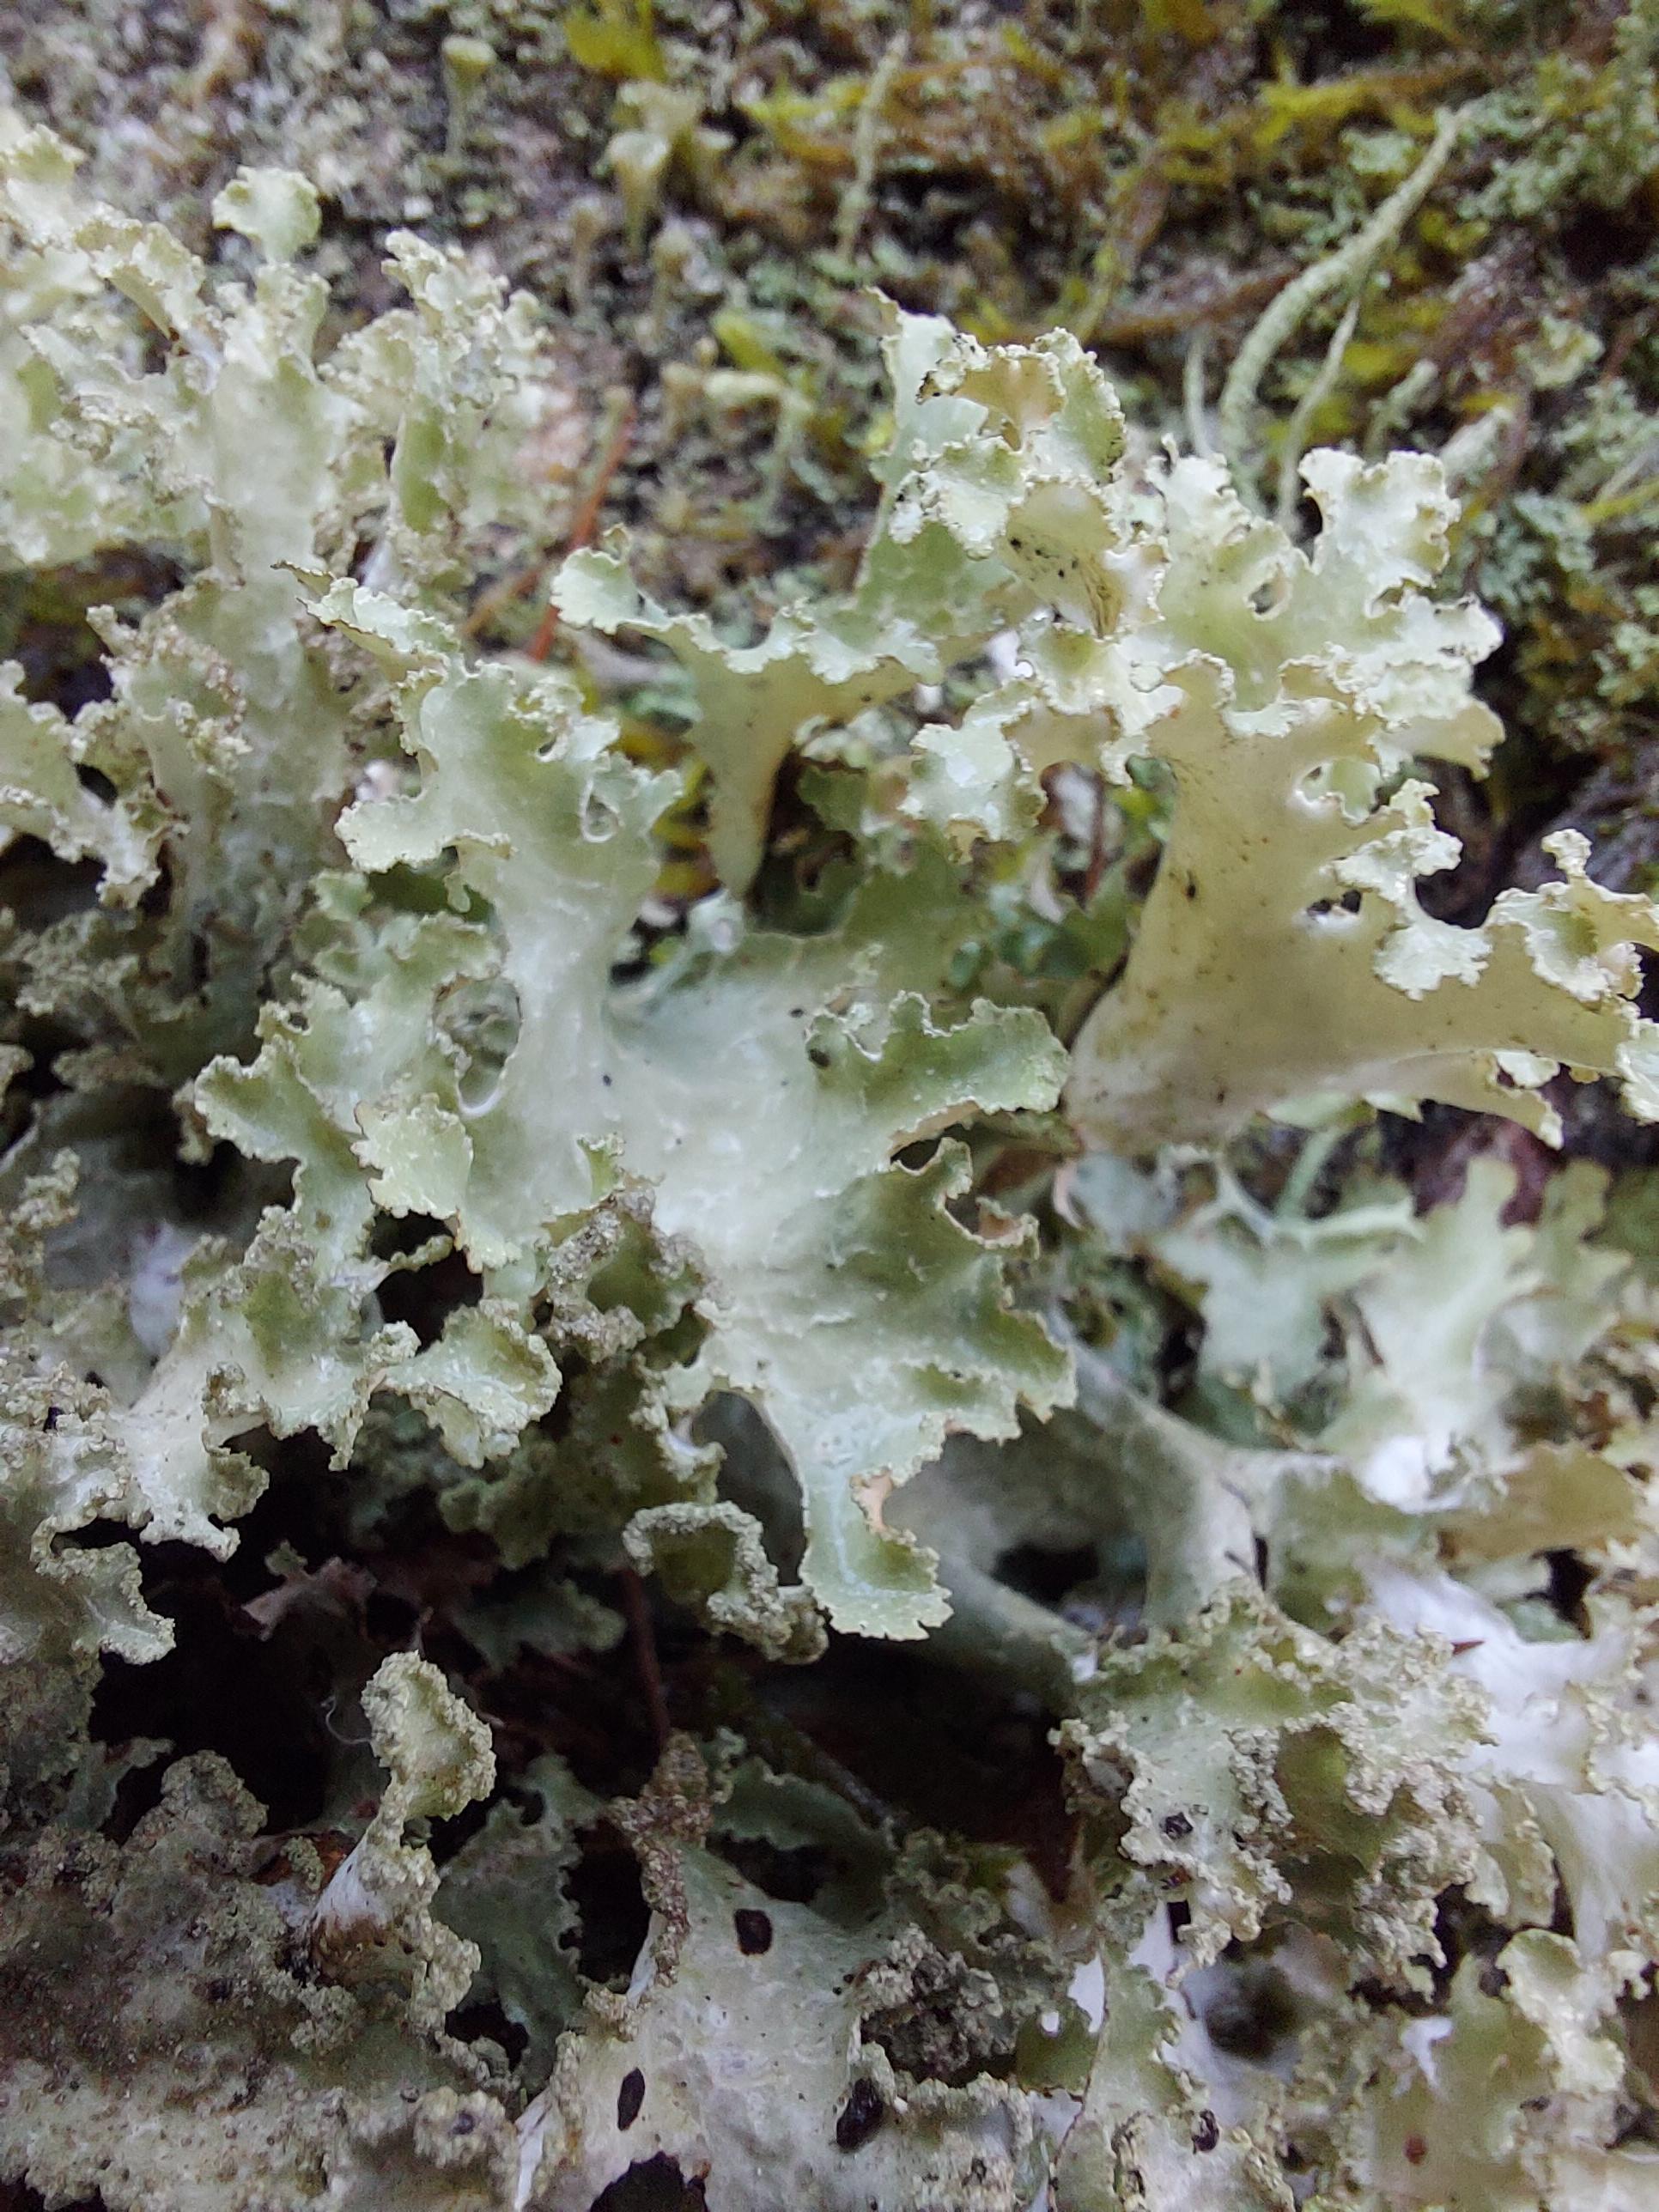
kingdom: Fungi
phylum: Ascomycota
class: Lecanoromycetes
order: Lecanorales
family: Parmeliaceae
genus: Platismatia
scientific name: Platismatia glauca
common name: blågrå papirlav
